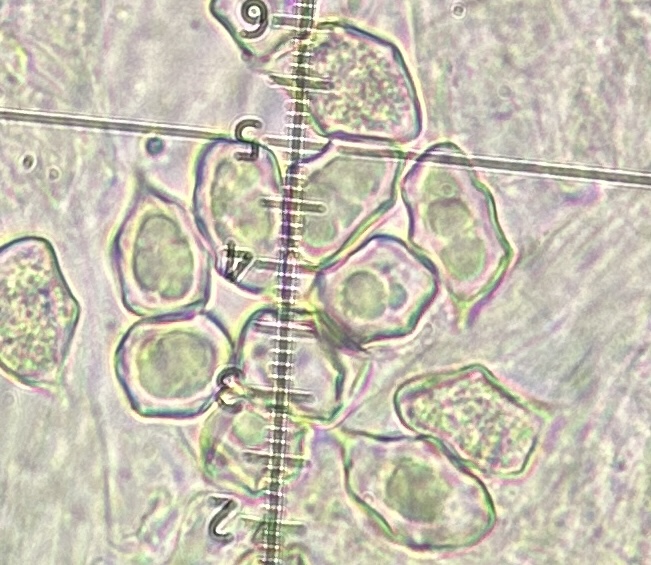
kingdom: Fungi
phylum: Basidiomycota
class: Agaricomycetes
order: Agaricales
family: Entolomataceae
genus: Entoloma
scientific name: Entoloma verae
